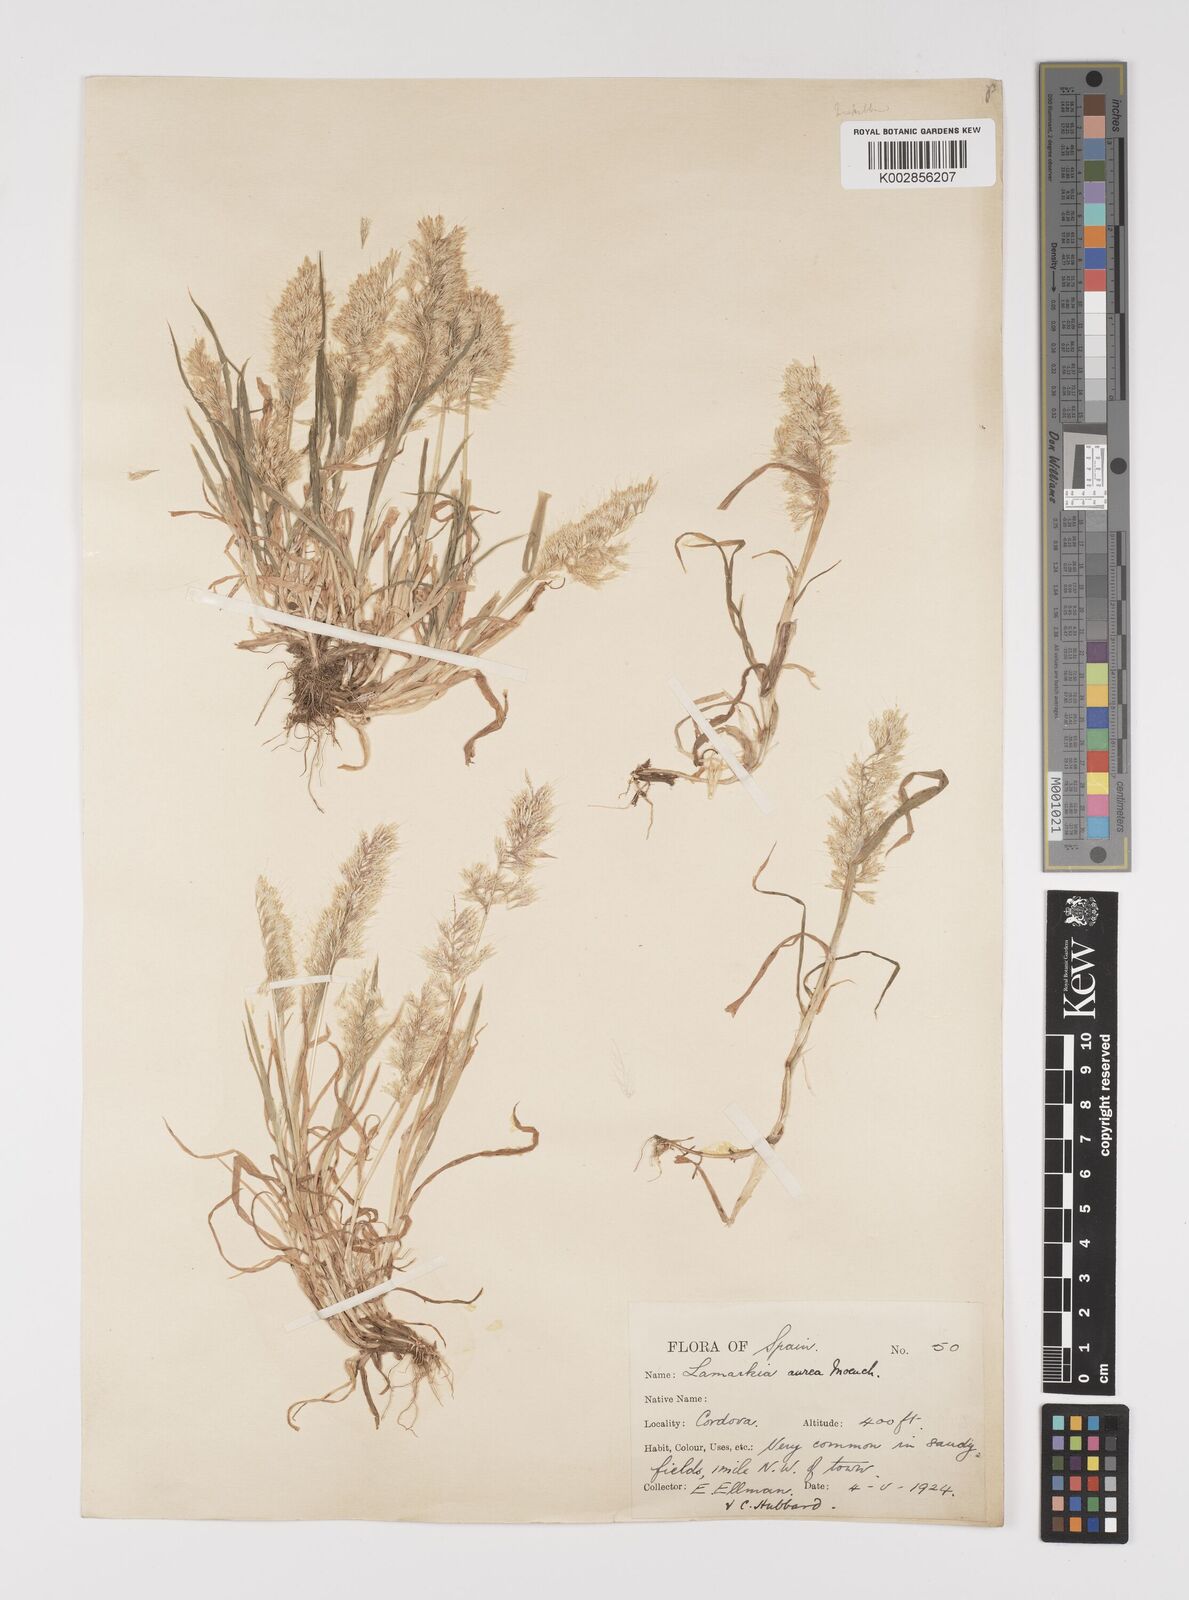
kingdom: Plantae
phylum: Tracheophyta
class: Liliopsida
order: Poales
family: Poaceae
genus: Lamarckia
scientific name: Lamarckia aurea
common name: Golden dog's-tail
